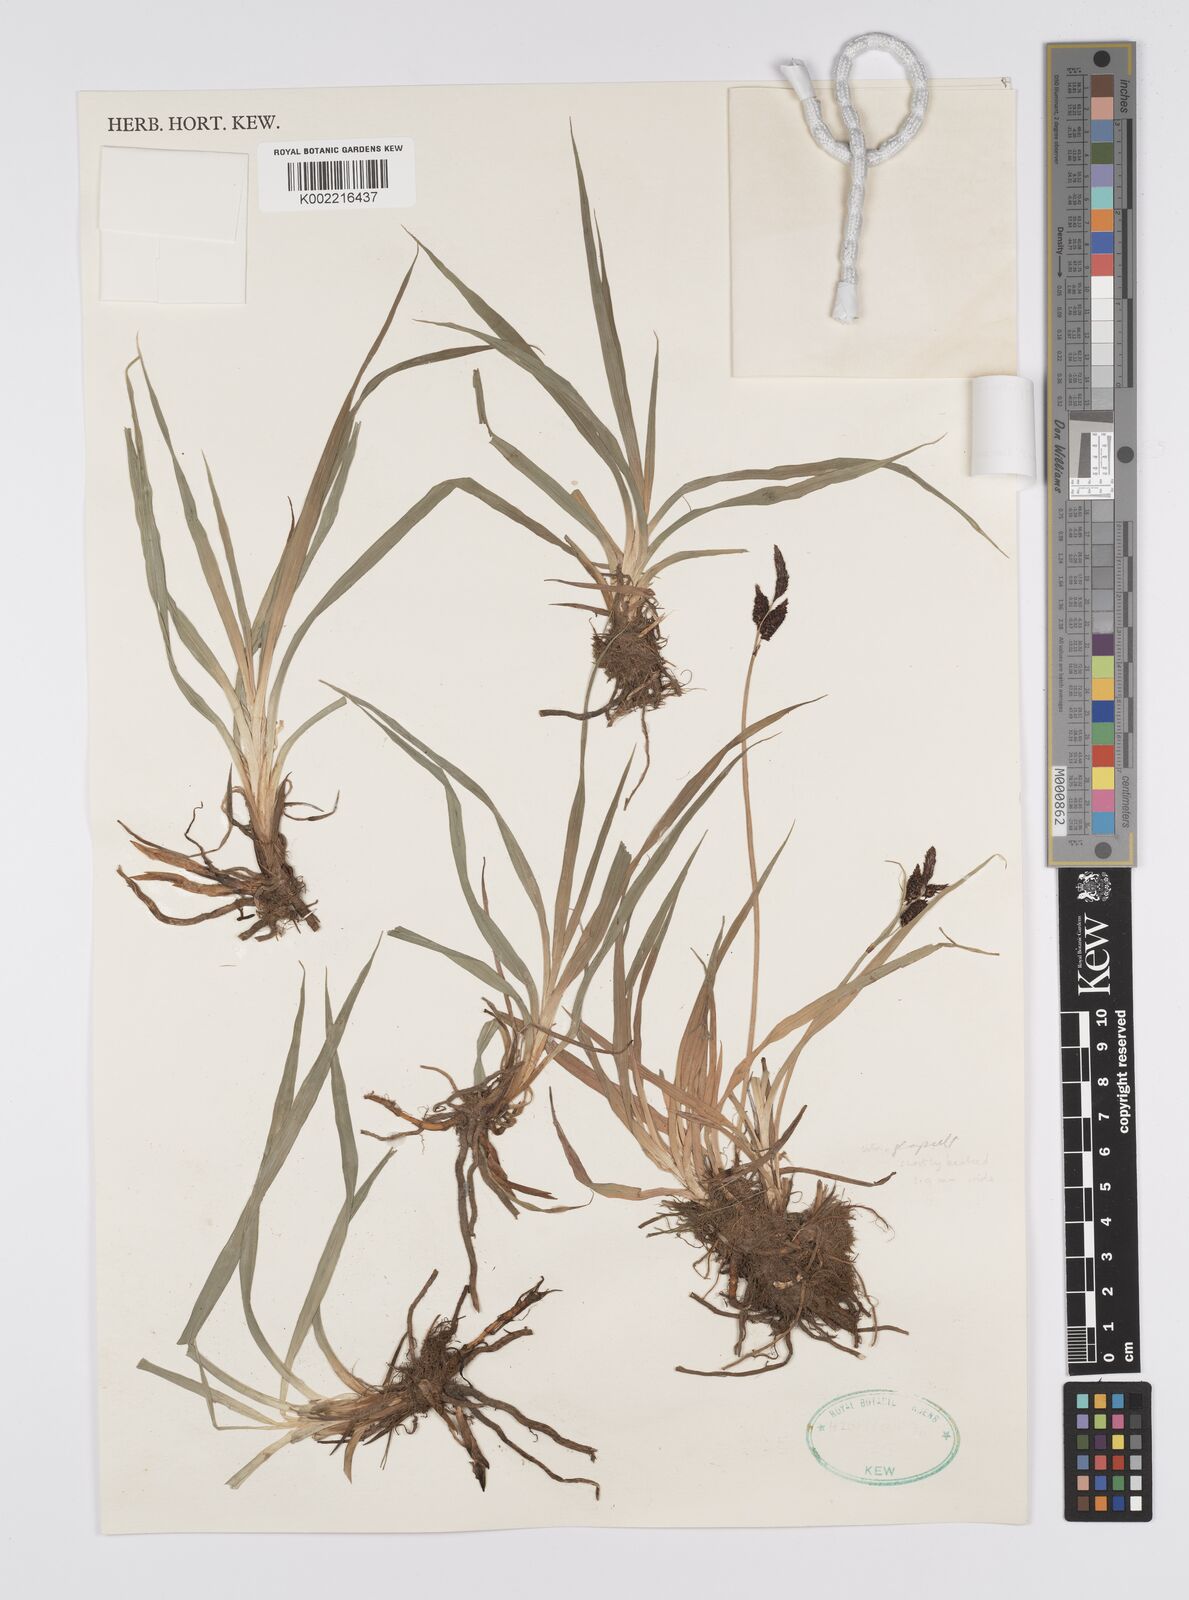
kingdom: Plantae
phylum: Tracheophyta
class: Liliopsida
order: Poales
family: Cyperaceae
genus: Carex
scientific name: Carex orbicularis
